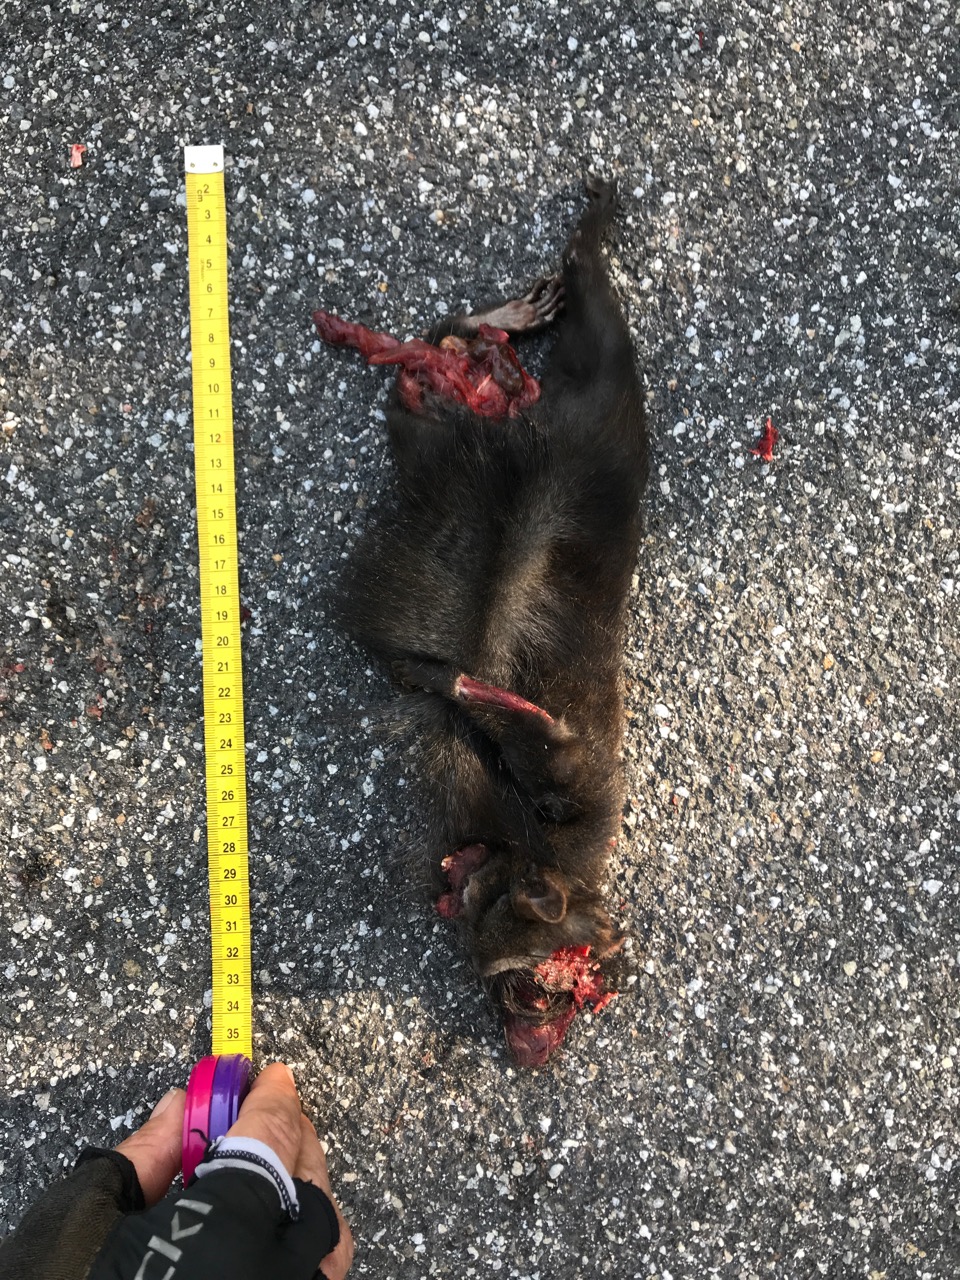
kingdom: Animalia
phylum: Chordata
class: Mammalia
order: Rodentia
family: Sciuridae
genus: Sciurus
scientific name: Sciurus vulgaris
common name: Eurasian red squirrel
